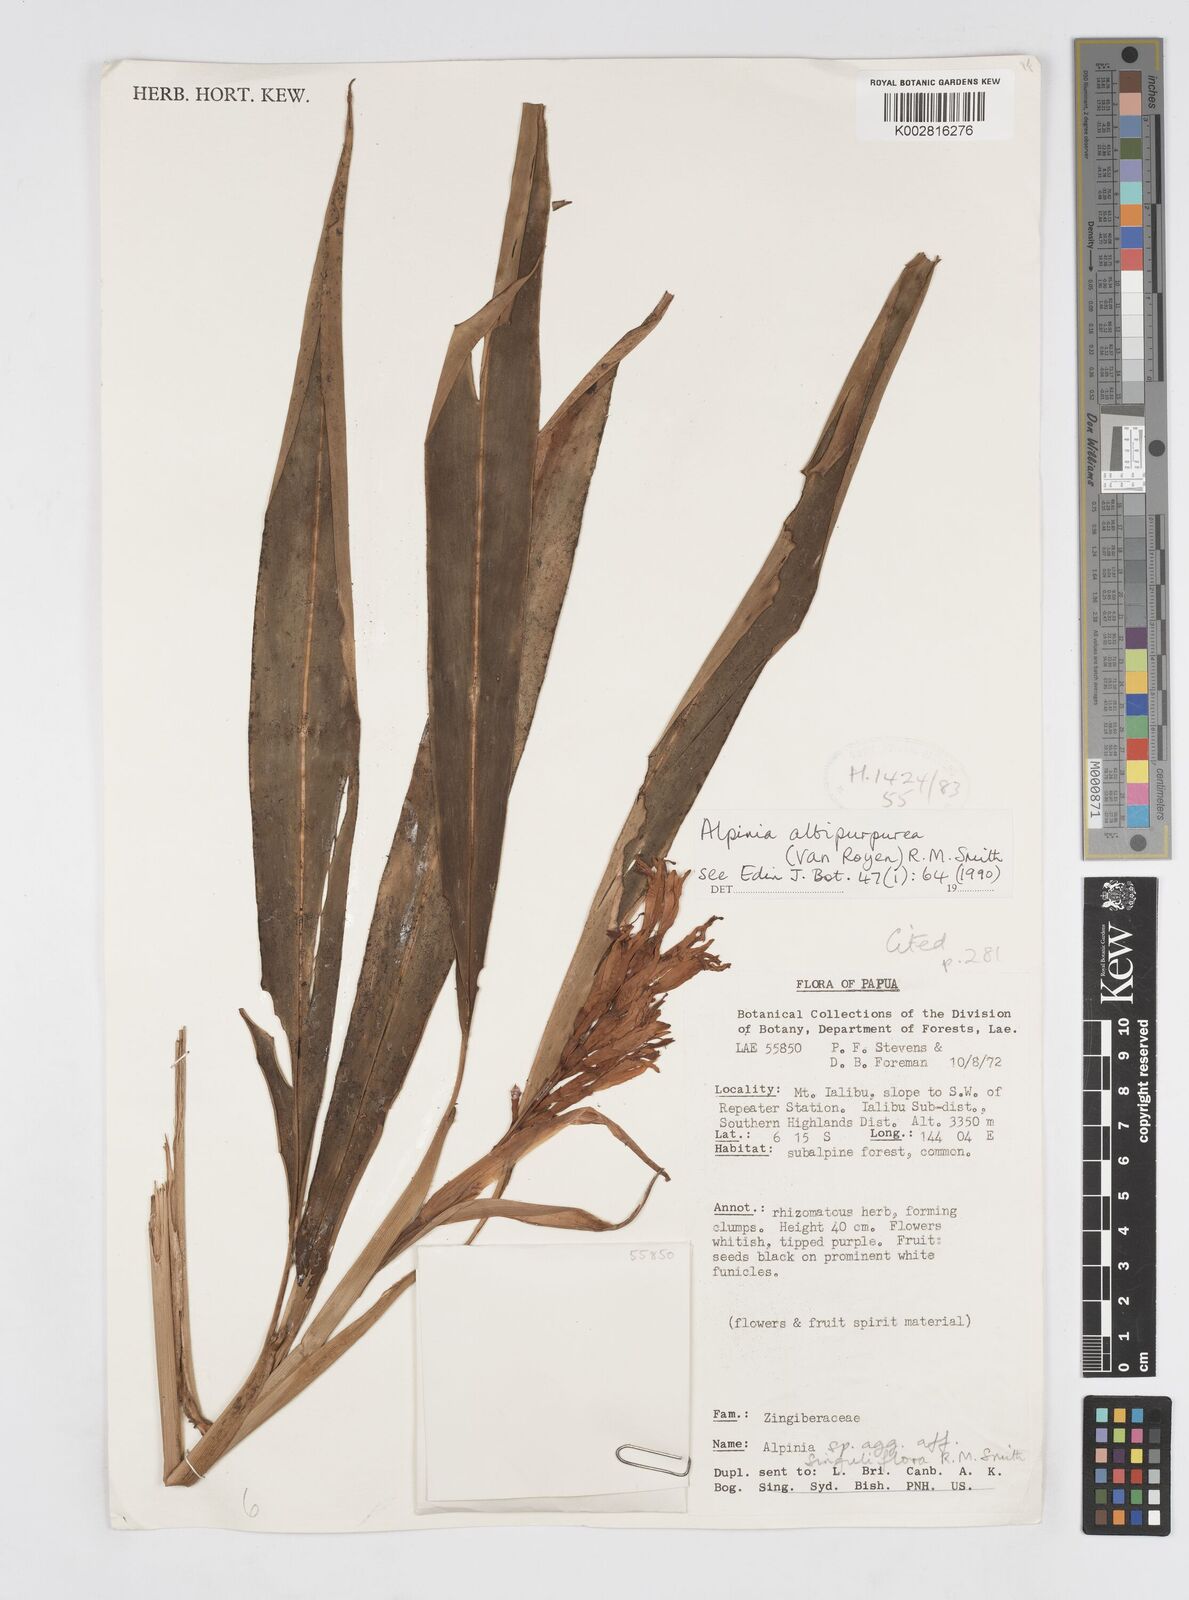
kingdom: Plantae
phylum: Tracheophyta
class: Liliopsida
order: Zingiberales
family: Zingiberaceae
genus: Alpinia
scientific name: Alpinia albipurpurea
